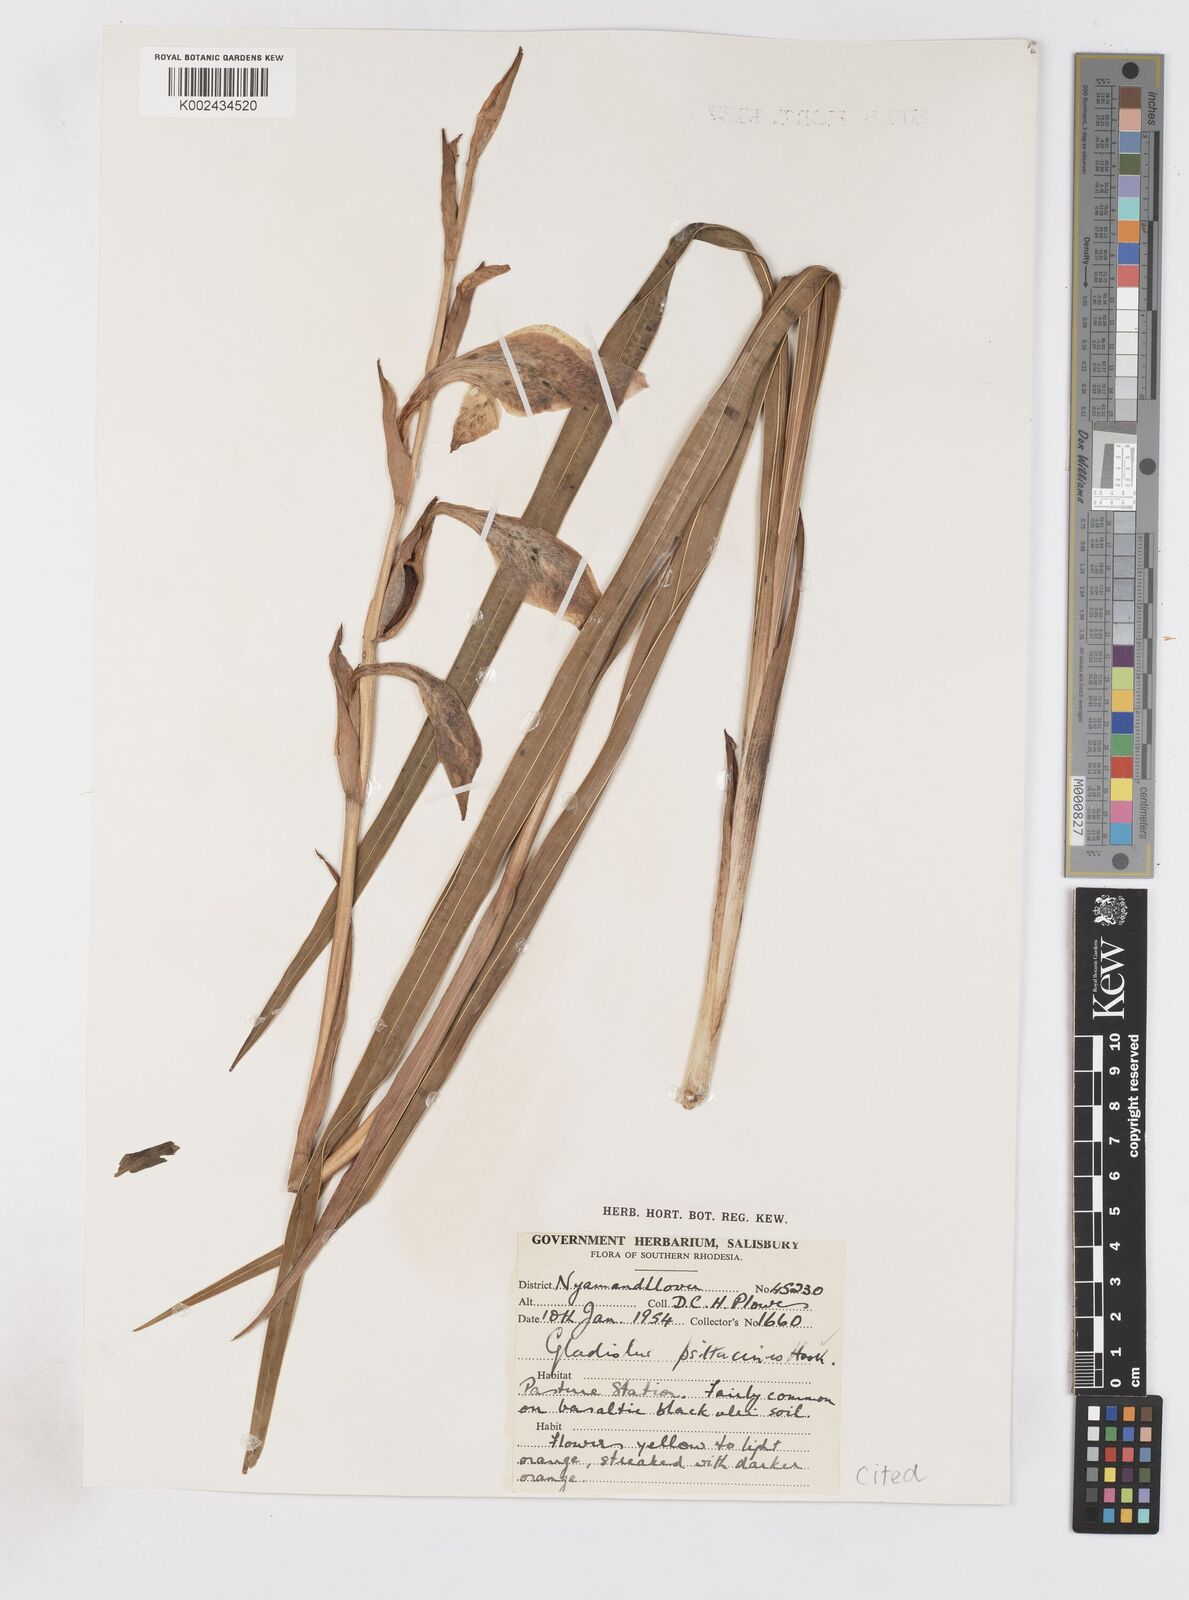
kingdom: Plantae
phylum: Tracheophyta
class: Liliopsida
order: Asparagales
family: Iridaceae
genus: Gladiolus
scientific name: Gladiolus dalenii
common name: Cornflag
